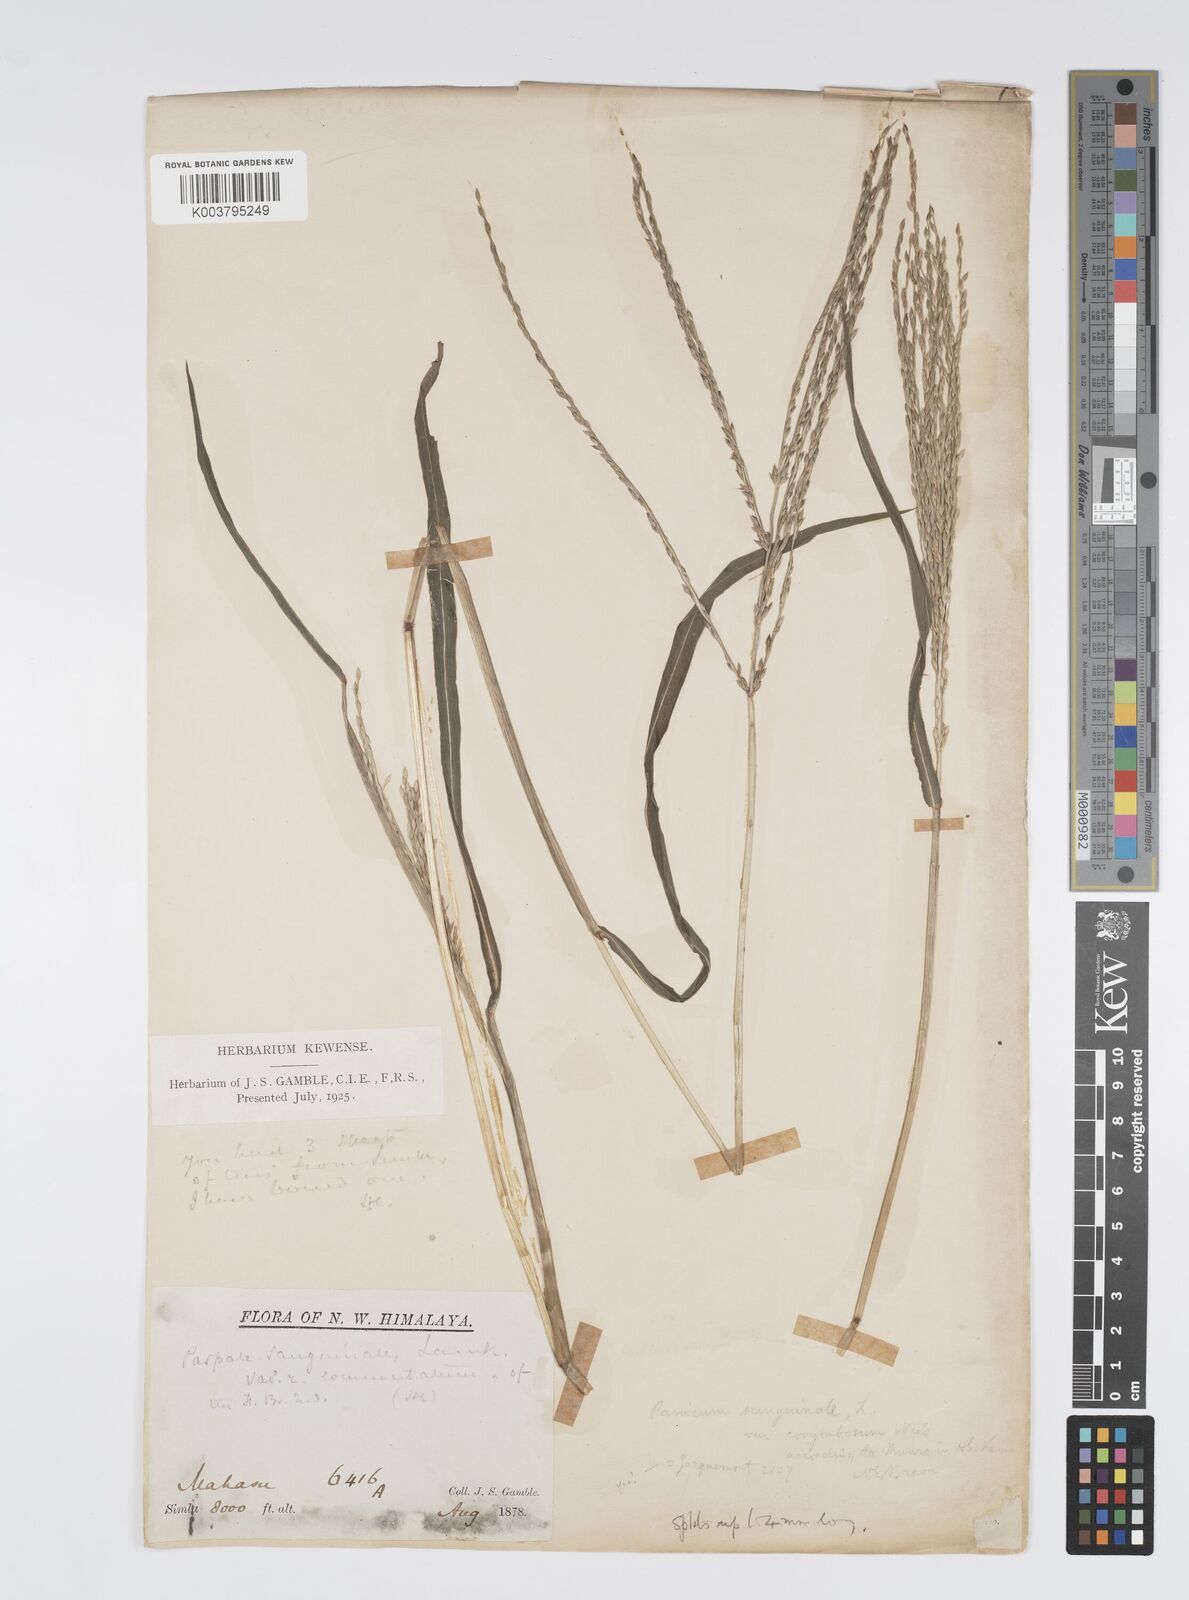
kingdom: Plantae
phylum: Tracheophyta
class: Liliopsida
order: Poales
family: Poaceae
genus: Digitaria
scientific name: Digitaria ciliaris
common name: Tropical finger-grass
